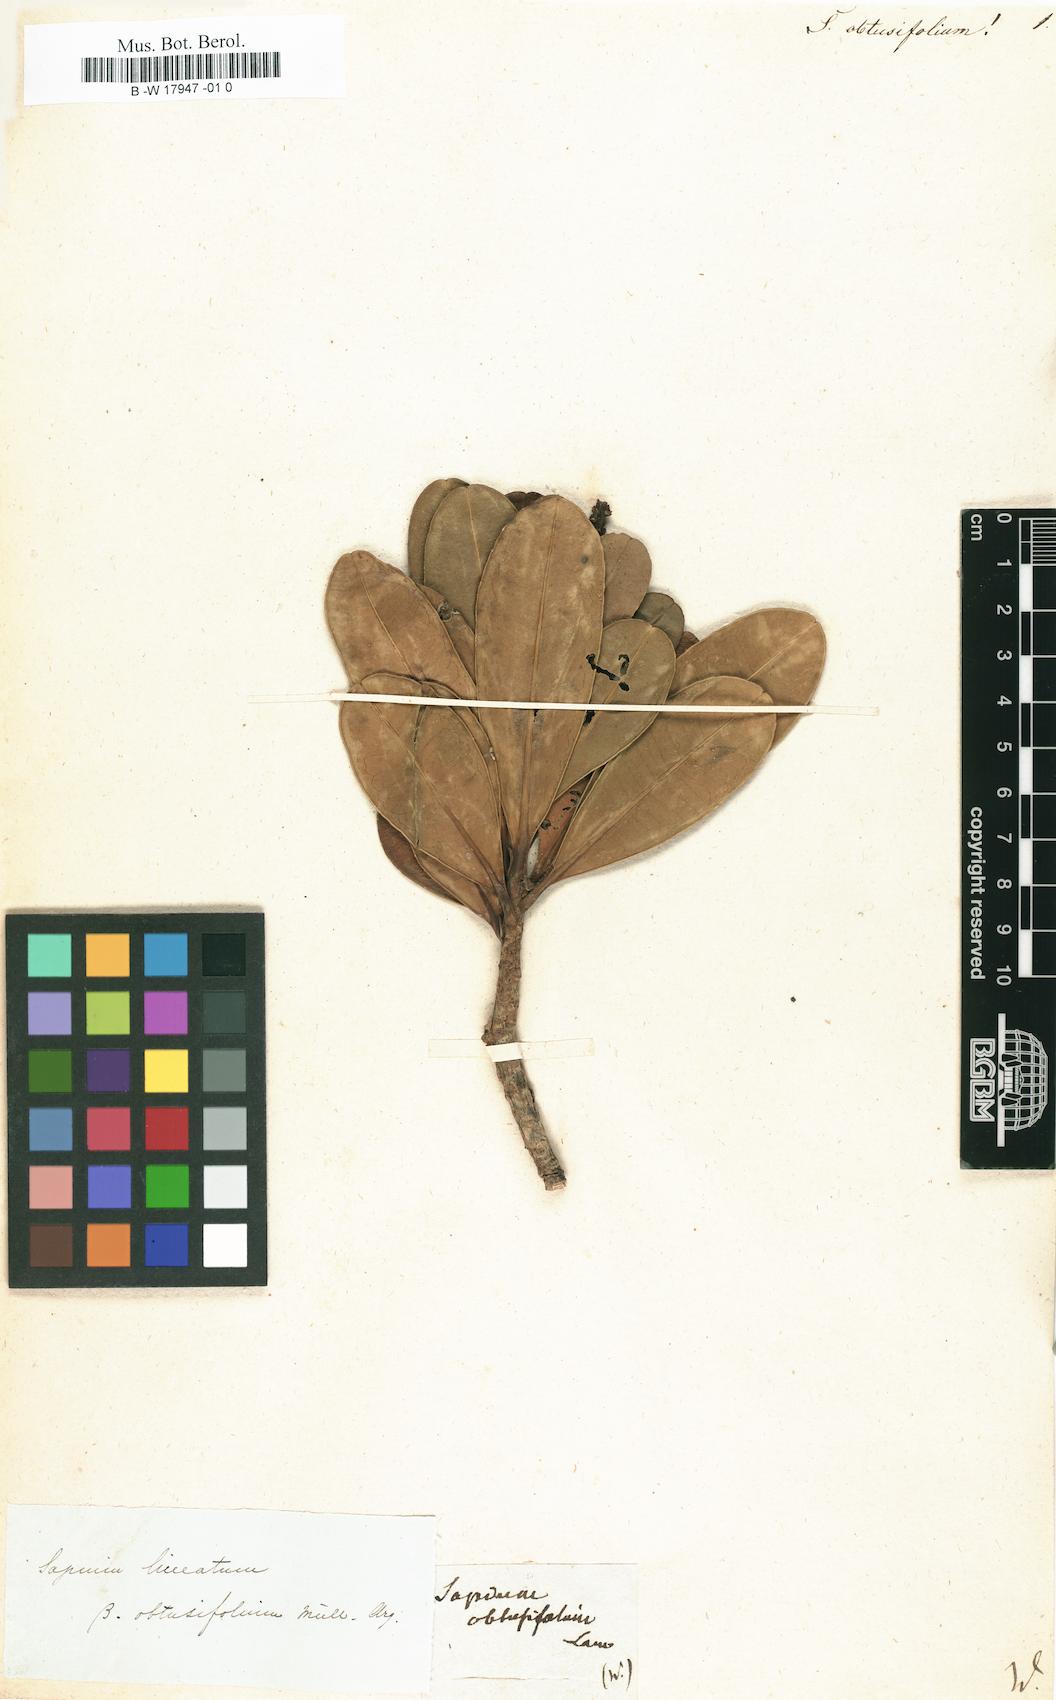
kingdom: Plantae
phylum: Tracheophyta
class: Magnoliopsida
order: Malpighiales
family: Euphorbiaceae
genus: Stillingia
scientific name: Stillingia lineata
